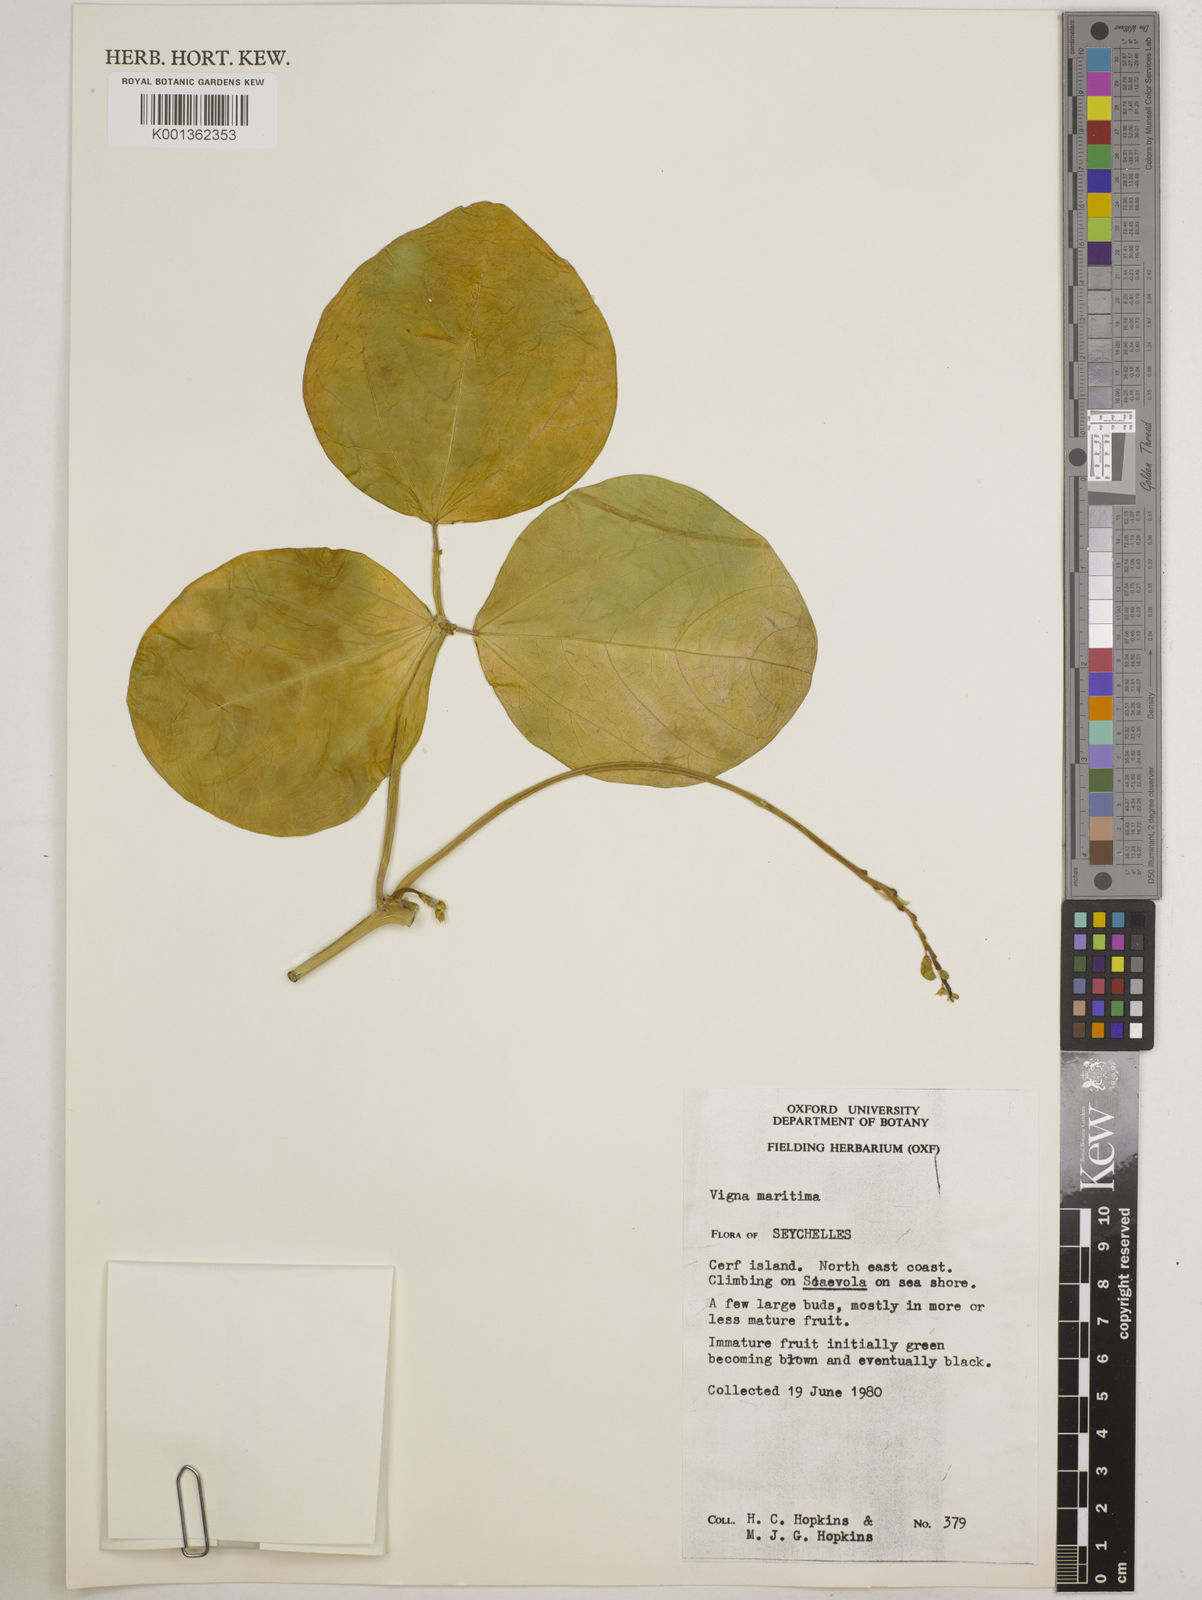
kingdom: Plantae
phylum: Tracheophyta
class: Magnoliopsida
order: Fabales
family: Fabaceae
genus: Vigna
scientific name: Vigna marina
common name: Dune-bean
